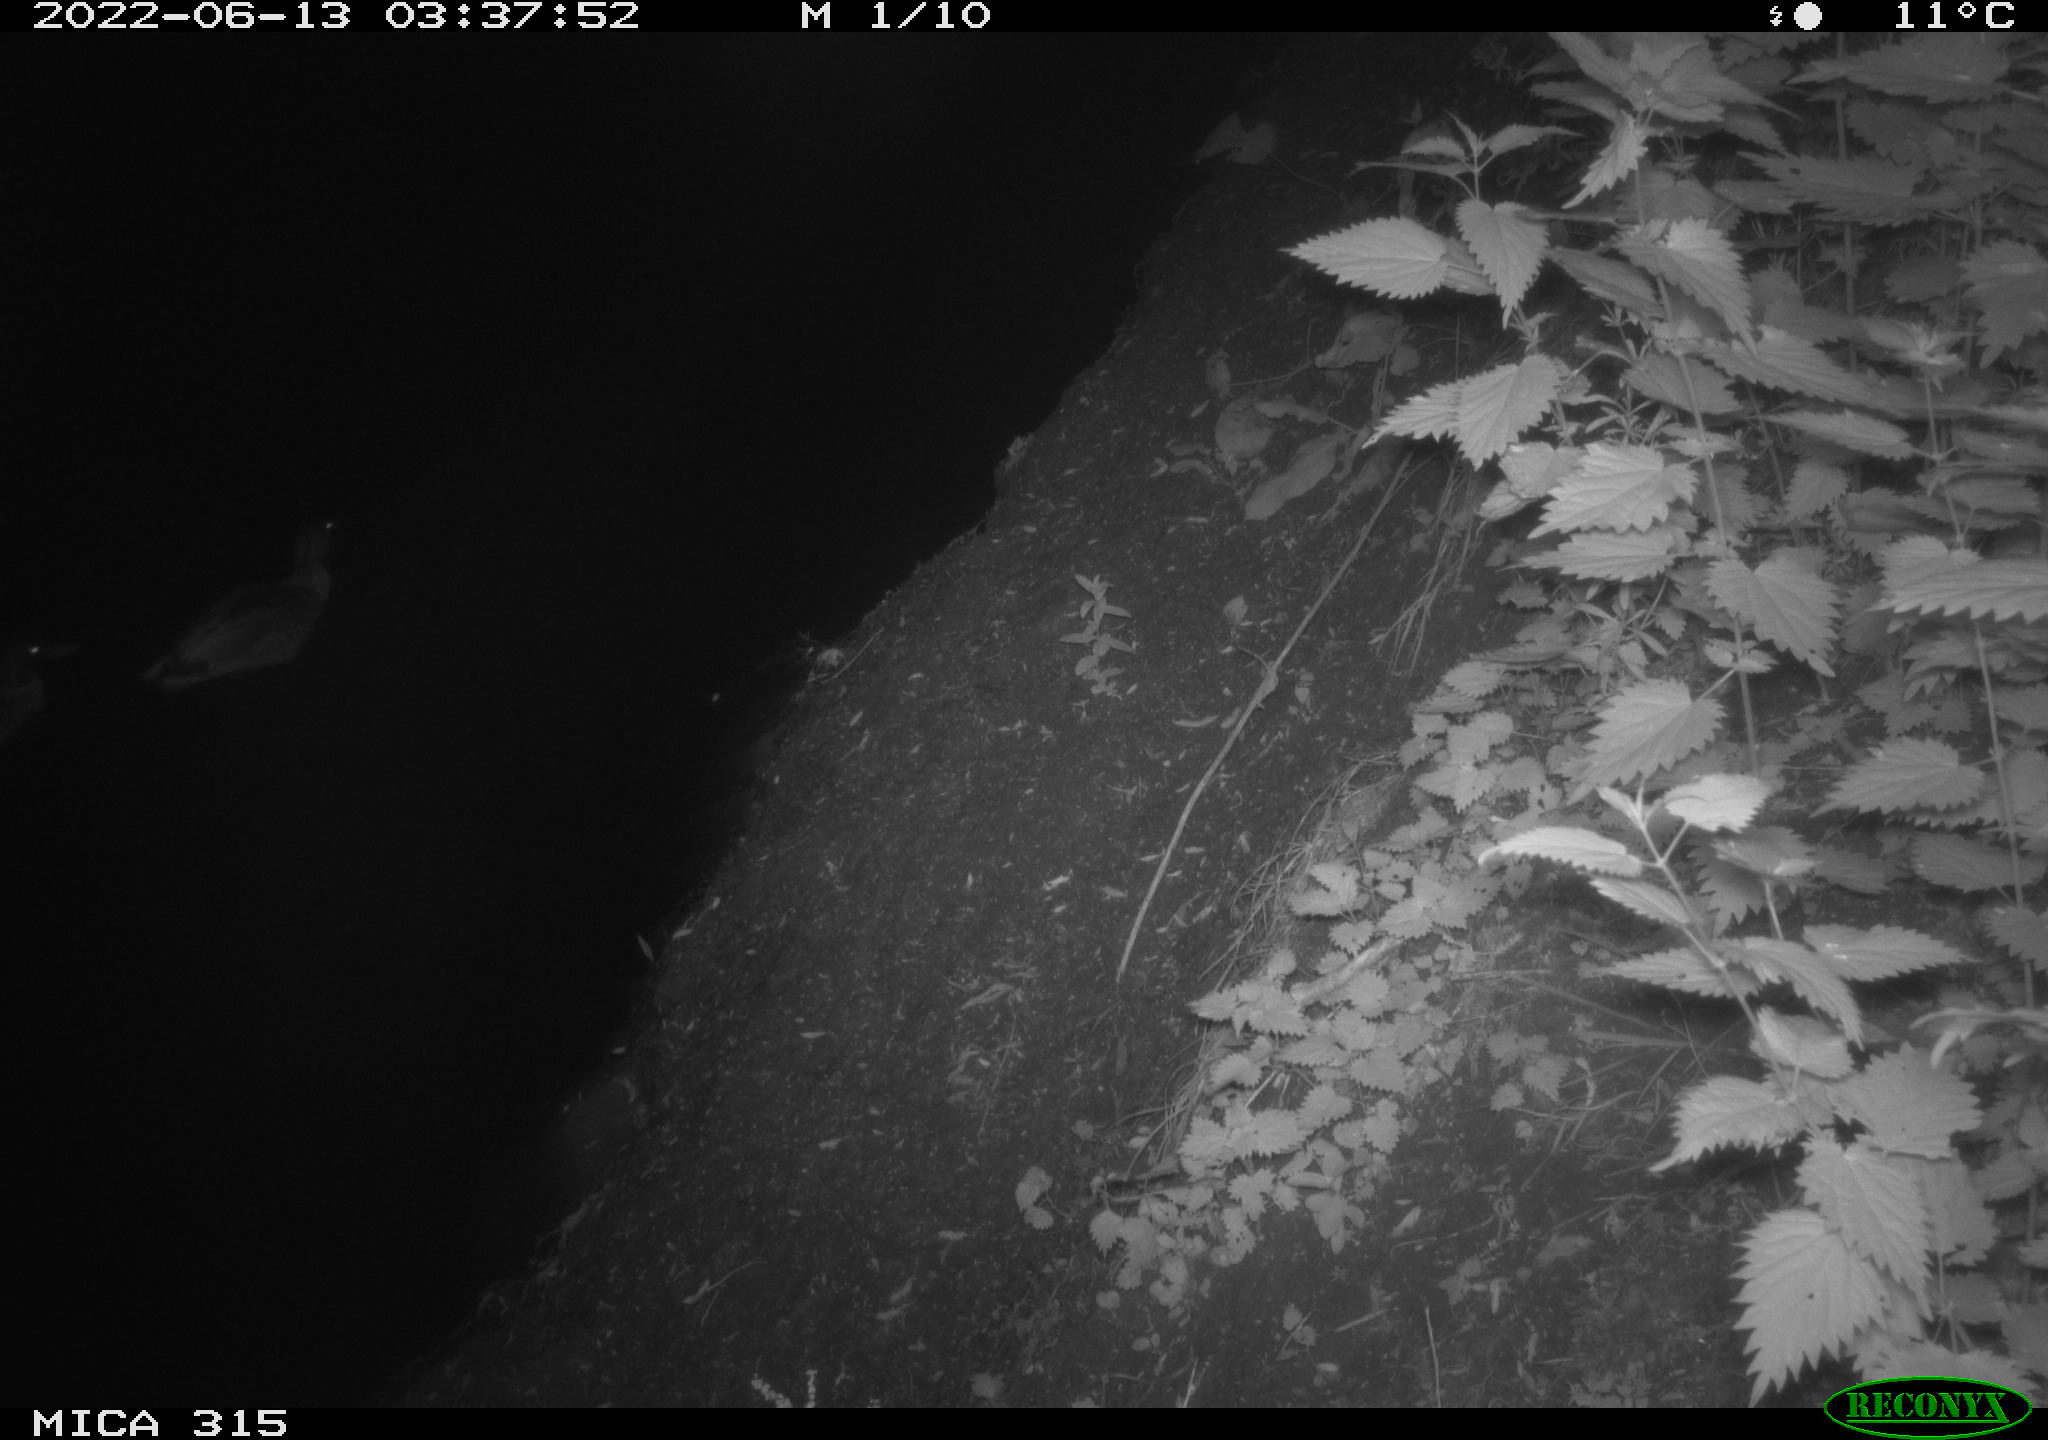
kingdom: Animalia
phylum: Chordata
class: Aves
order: Gruiformes
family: Rallidae
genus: Fulica
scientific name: Fulica atra
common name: Eurasian coot
